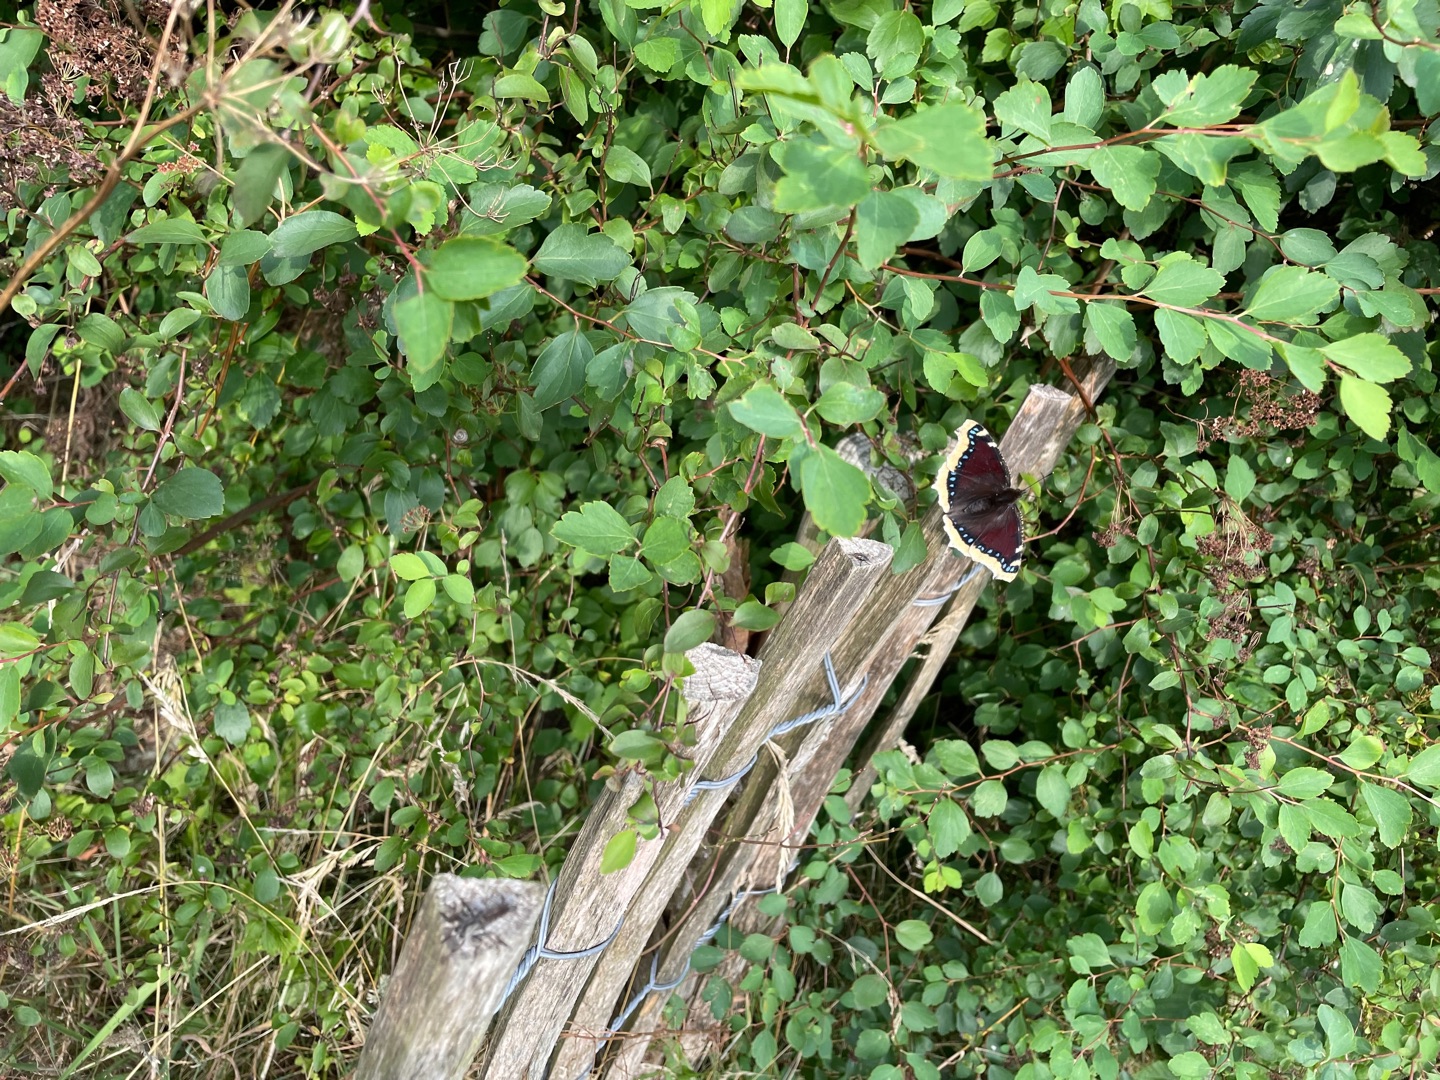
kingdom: Animalia
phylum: Arthropoda
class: Insecta
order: Lepidoptera
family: Nymphalidae
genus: Nymphalis
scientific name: Nymphalis antiopa
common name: Sørgekåbe
